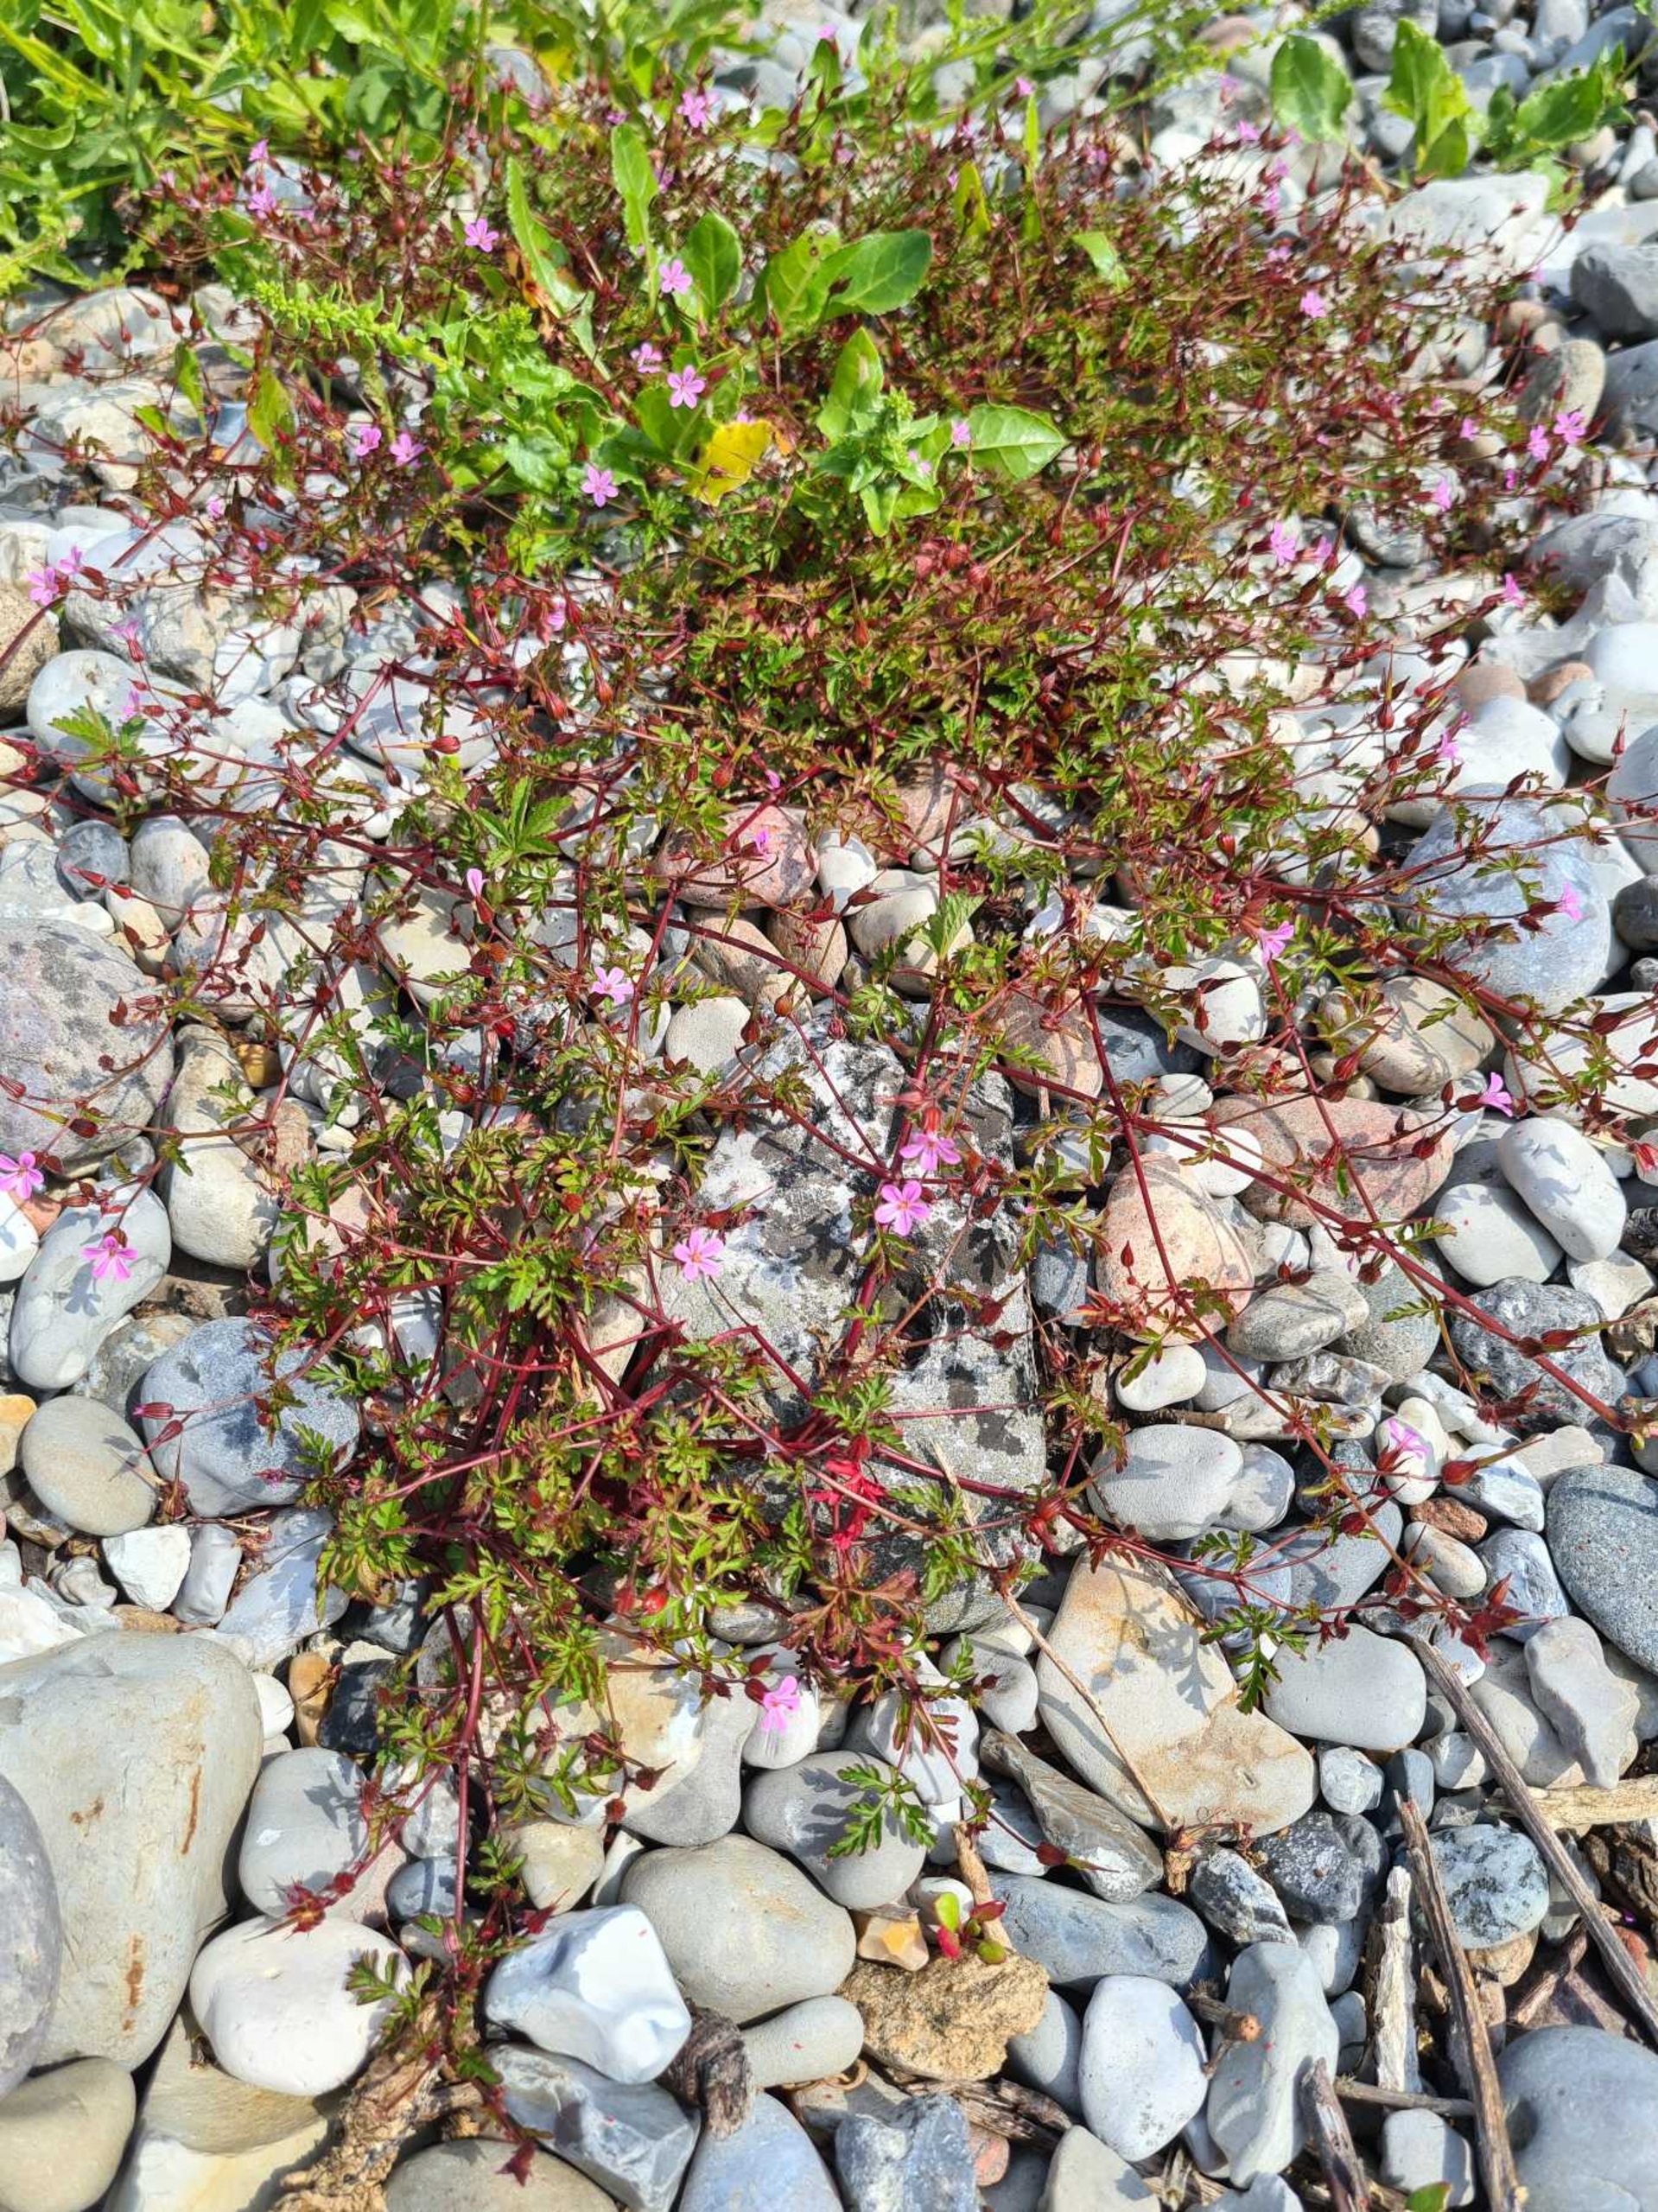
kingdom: Plantae
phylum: Tracheophyta
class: Magnoliopsida
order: Geraniales
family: Geraniaceae
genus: Geranium
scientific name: Geranium purpureum
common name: Strand-storkenæb
